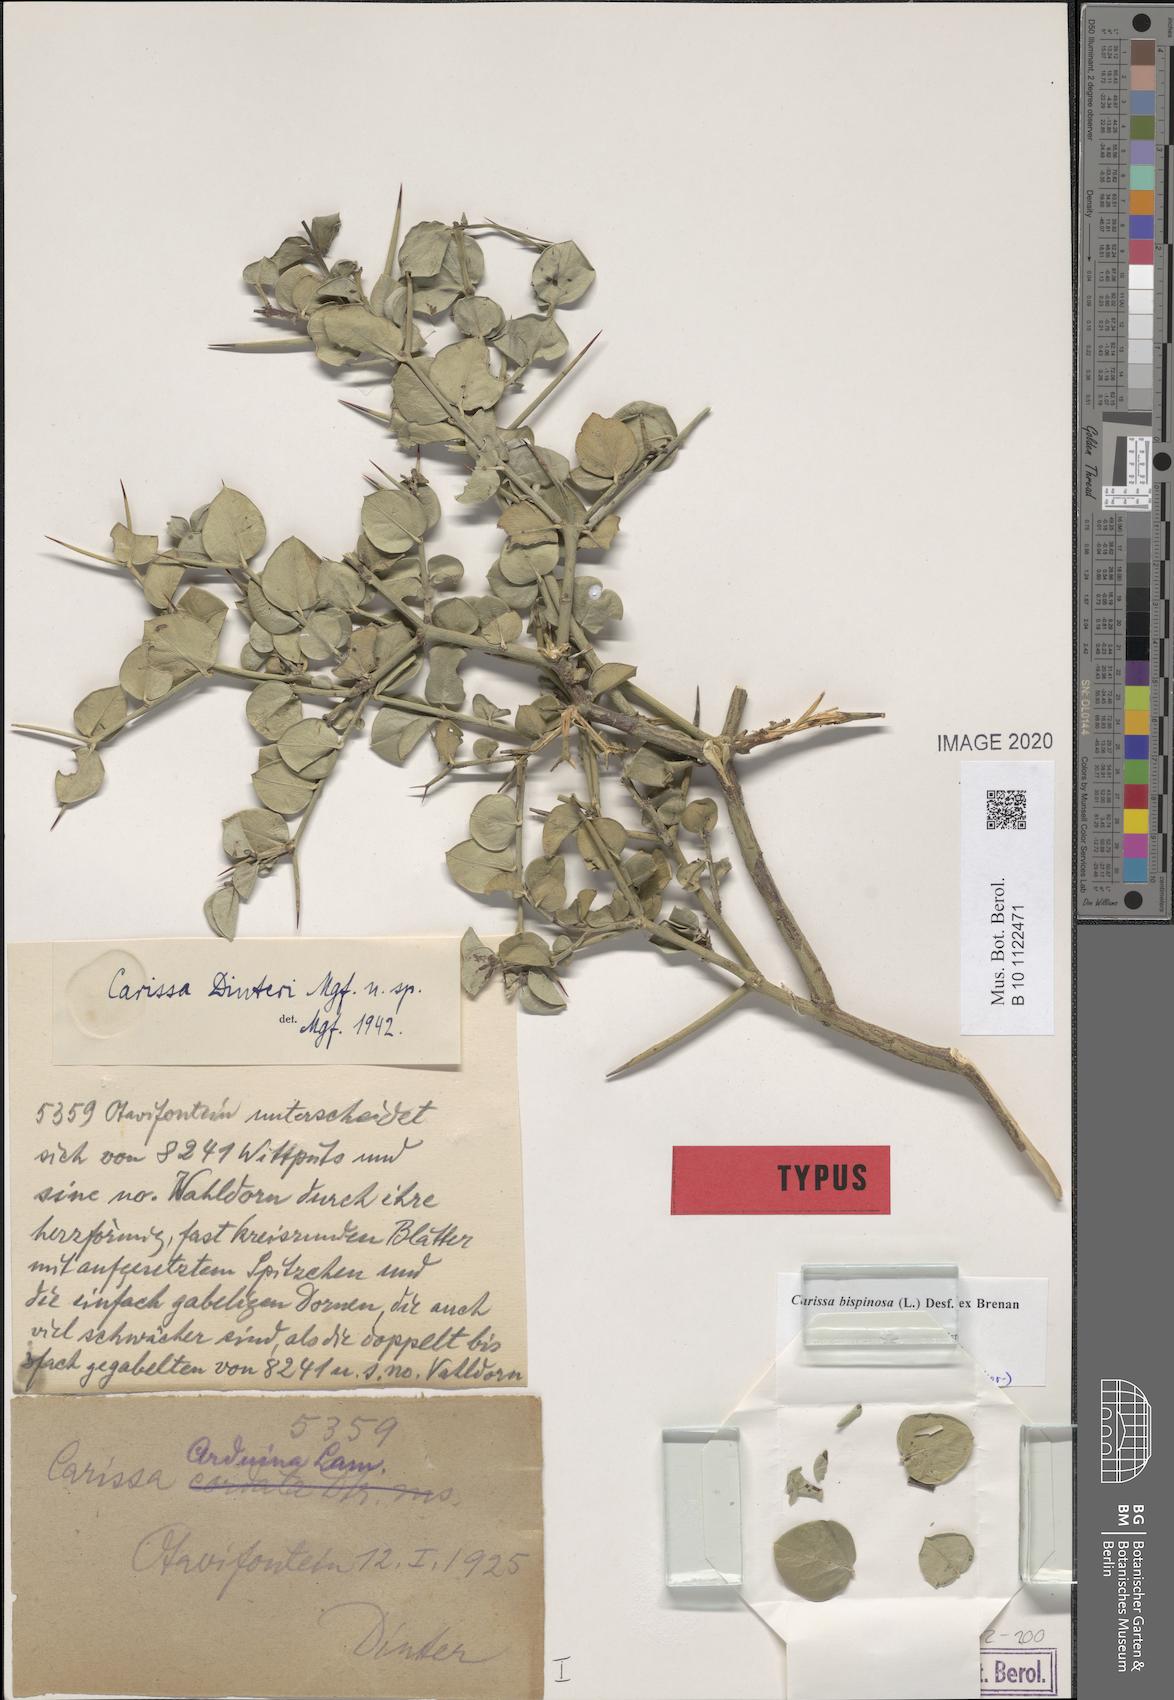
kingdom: Plantae
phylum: Tracheophyta
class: Magnoliopsida
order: Gentianales
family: Apocynaceae
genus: Carissa
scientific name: Carissa bispinosa
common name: Forest num-num
